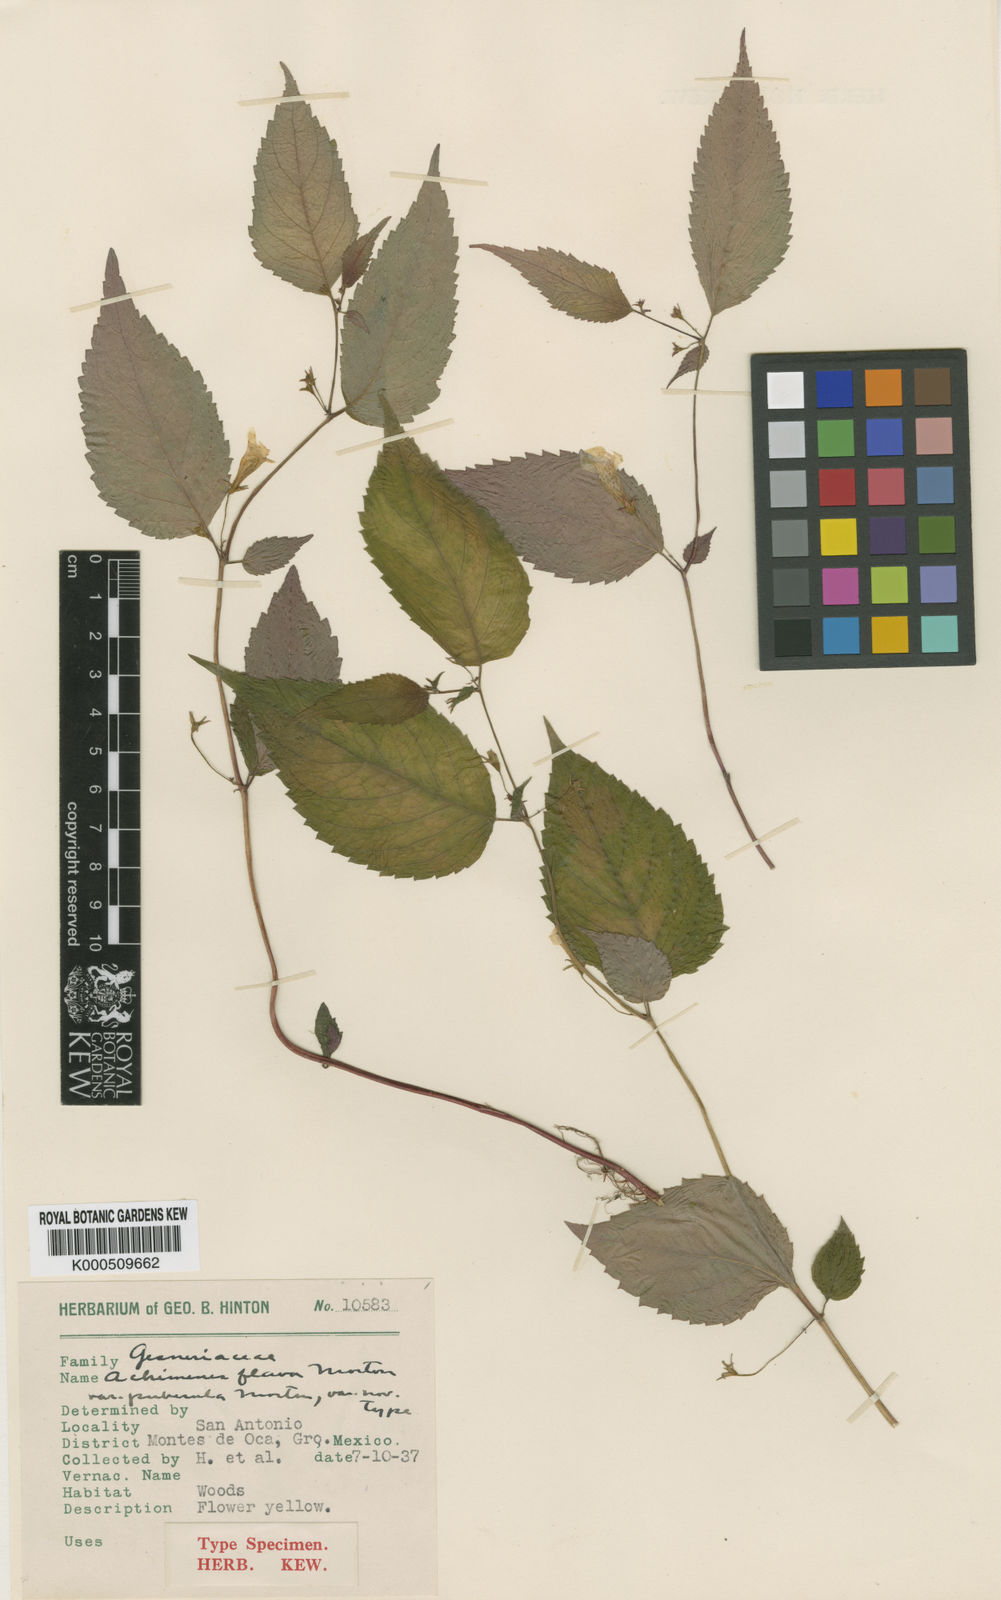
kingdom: Plantae
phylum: Tracheophyta
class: Magnoliopsida
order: Lamiales
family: Gesneriaceae
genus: Achimenes
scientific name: Achimenes flava
